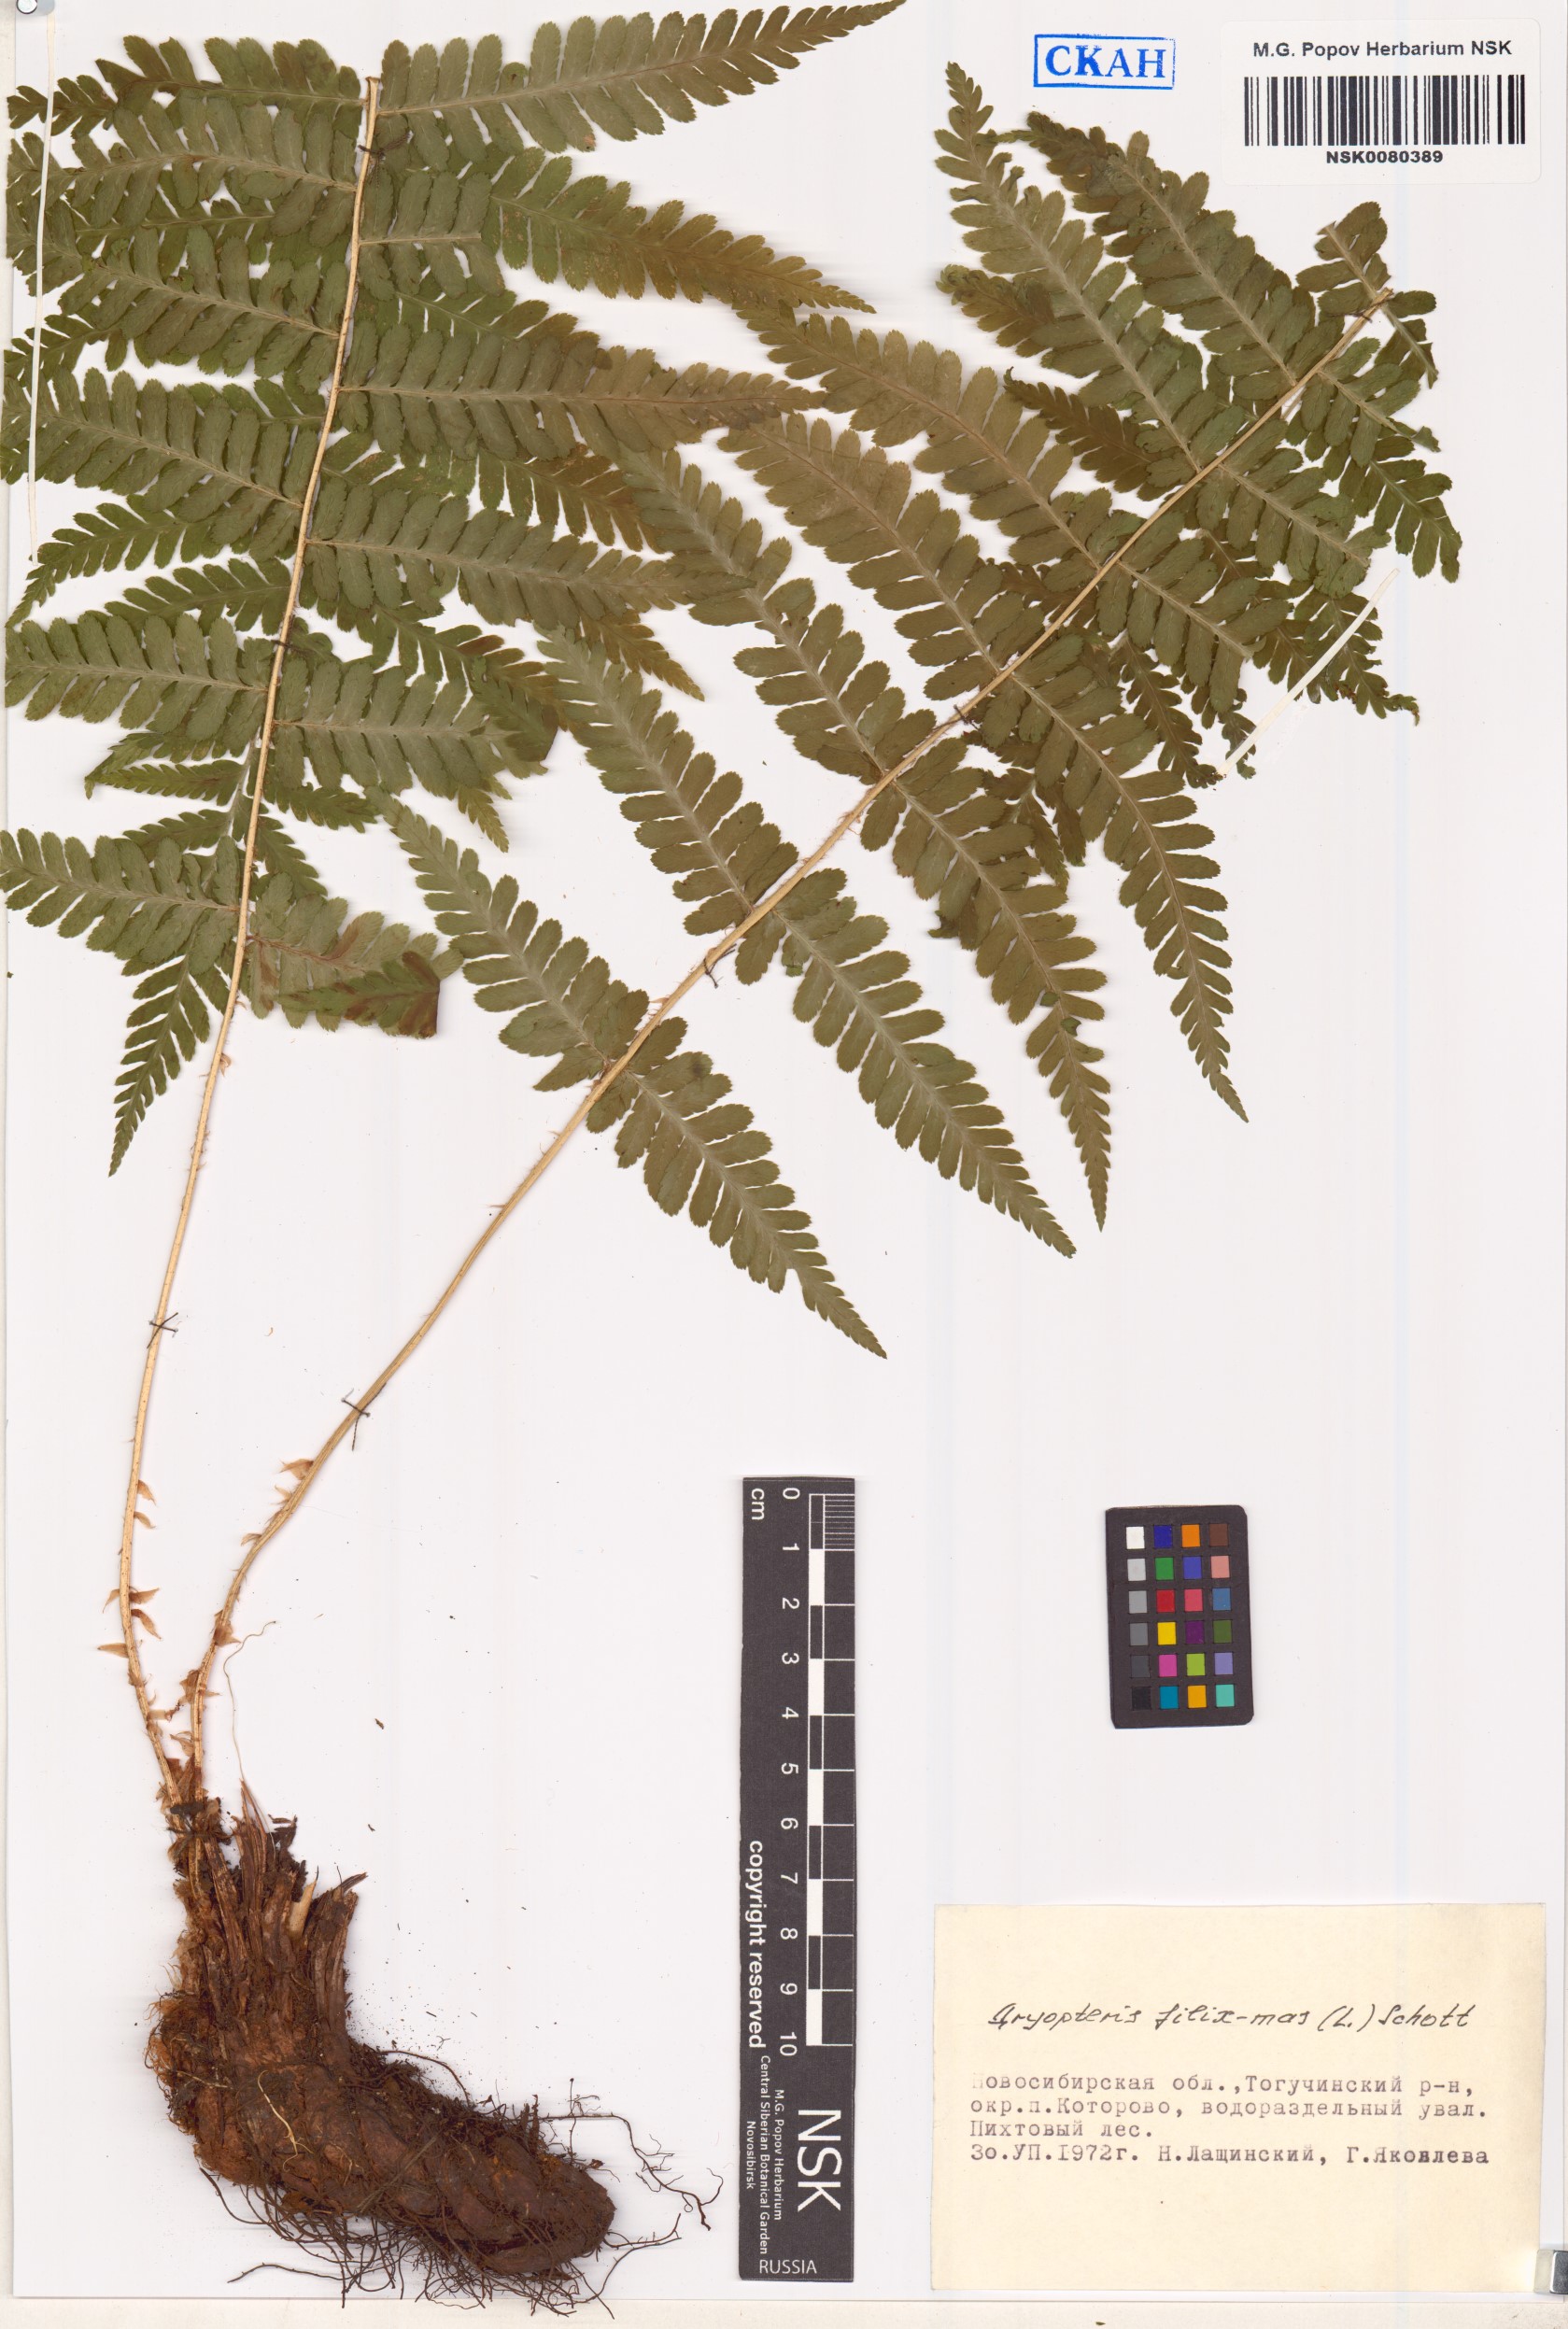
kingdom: Plantae
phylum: Tracheophyta
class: Polypodiopsida
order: Polypodiales
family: Dryopteridaceae
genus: Dryopteris
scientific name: Dryopteris filix-mas
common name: Male fern
